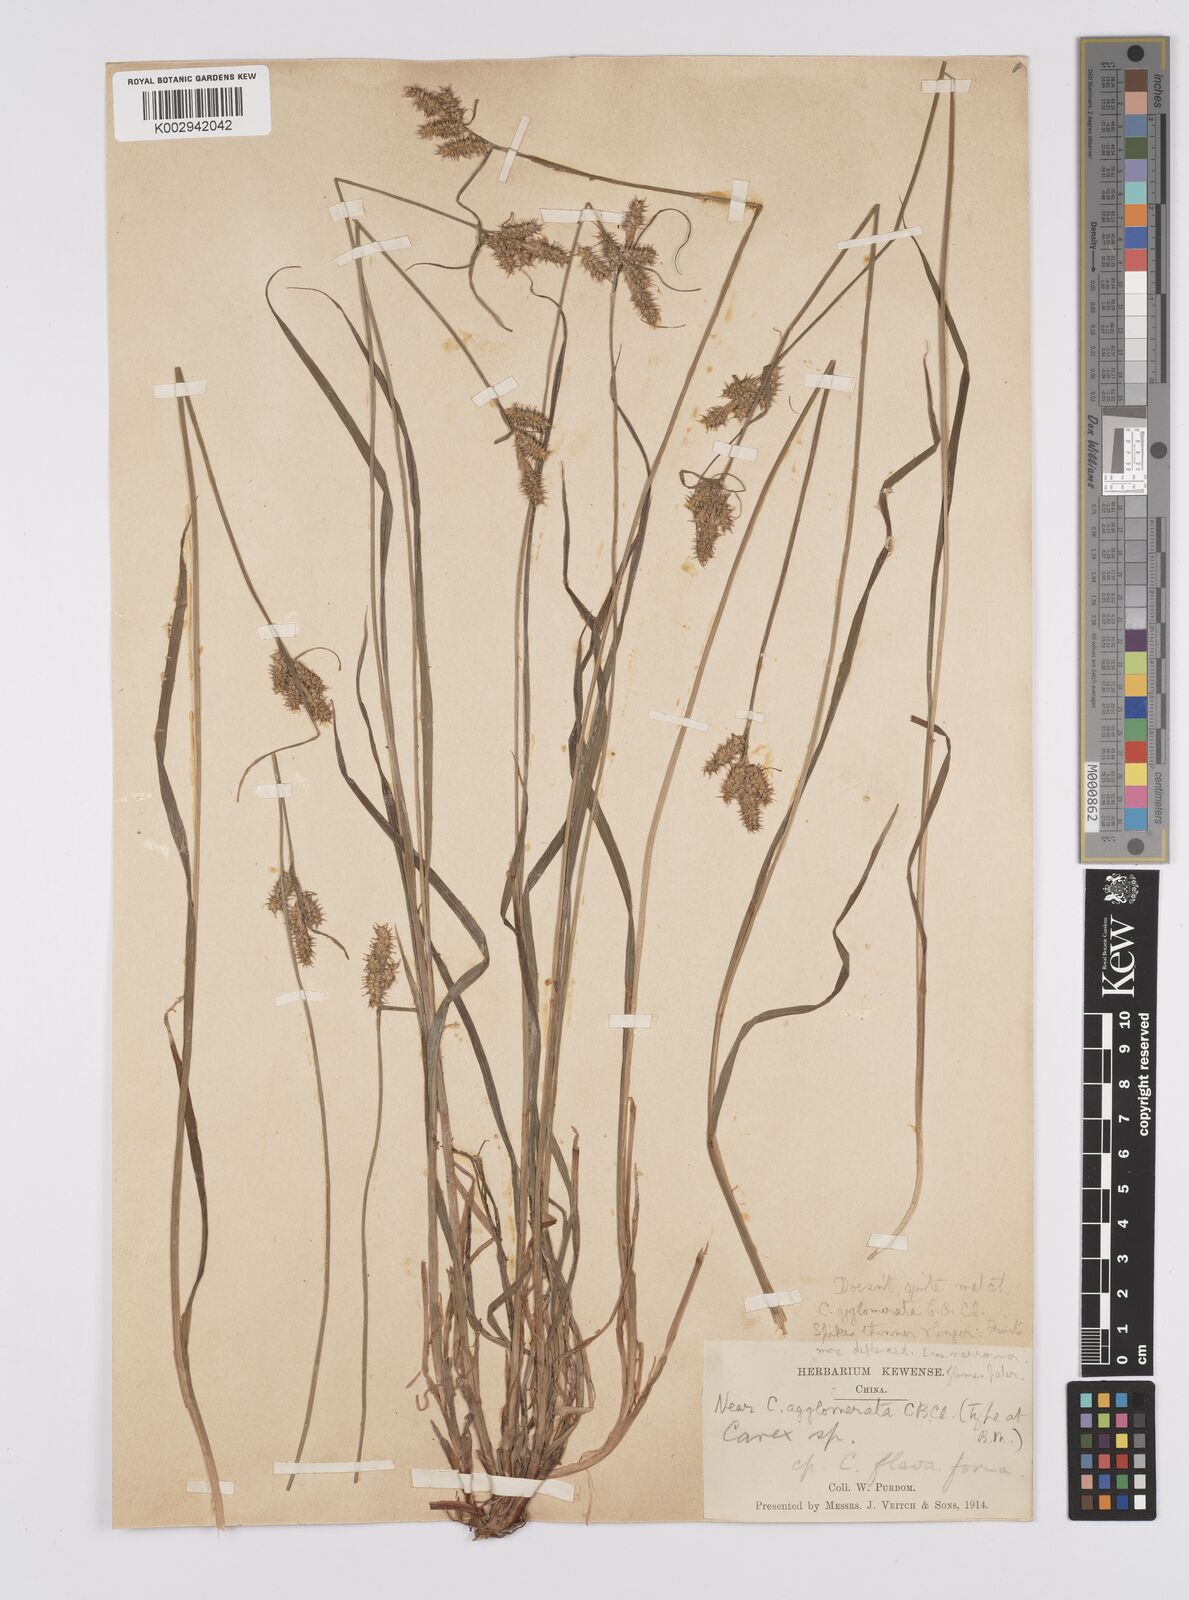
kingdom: Plantae
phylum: Tracheophyta
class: Liliopsida
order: Poales
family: Cyperaceae
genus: Carex
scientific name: Carex agglomerata
